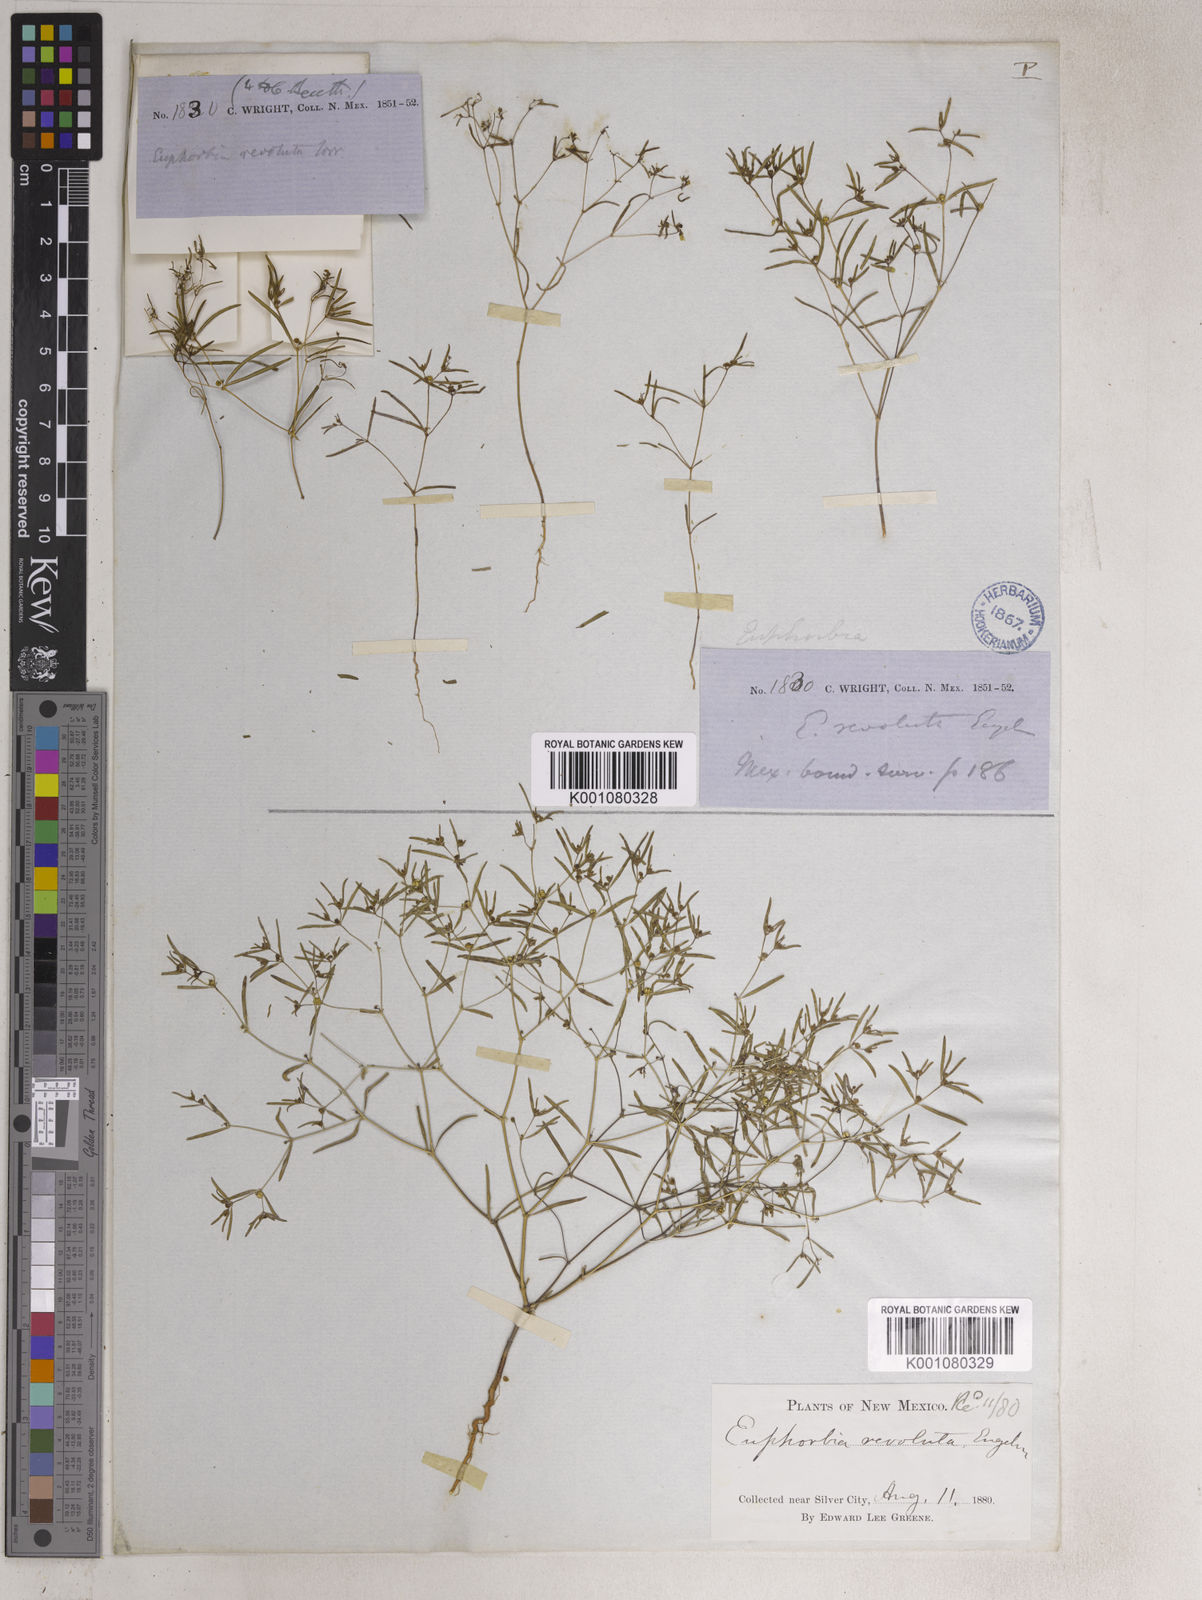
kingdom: Plantae
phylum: Tracheophyta
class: Magnoliopsida
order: Malpighiales
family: Euphorbiaceae
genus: Euphorbia
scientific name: Euphorbia revoluta
